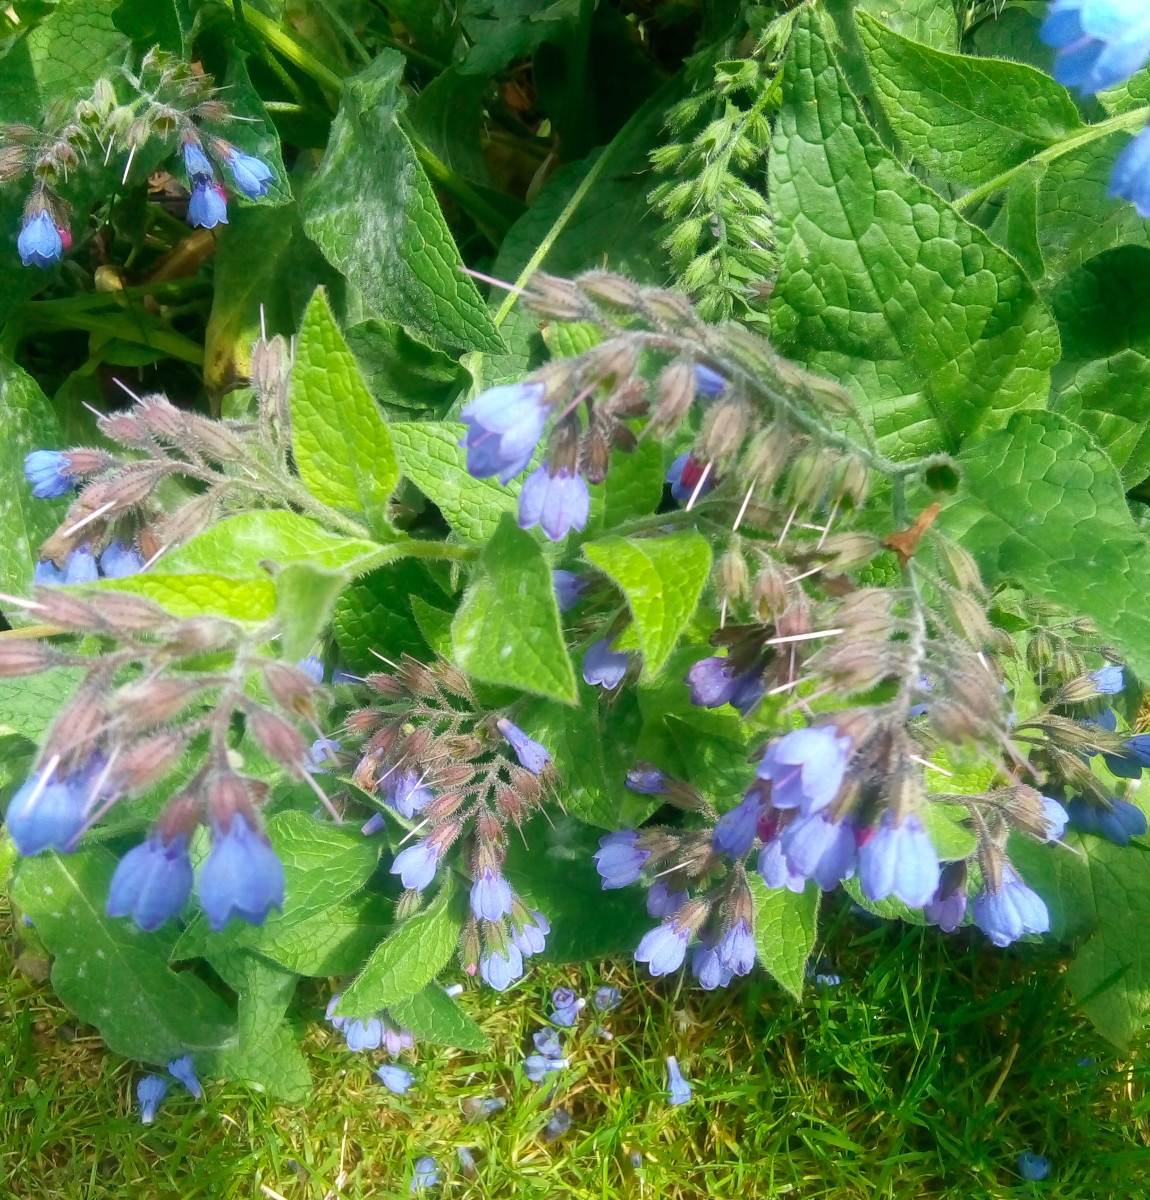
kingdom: Fungi
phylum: Ascomycota
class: Leotiomycetes
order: Helotiales
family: Erysiphaceae
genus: Golovinomyces
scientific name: Golovinomyces asperifoliorum
